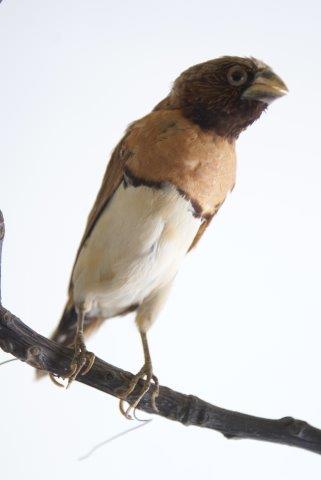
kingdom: Animalia
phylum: Chordata
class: Aves
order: Passeriformes
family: Estrildidae
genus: Lonchura
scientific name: Lonchura castaneothorax
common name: Chestnut-breasted mannikin
